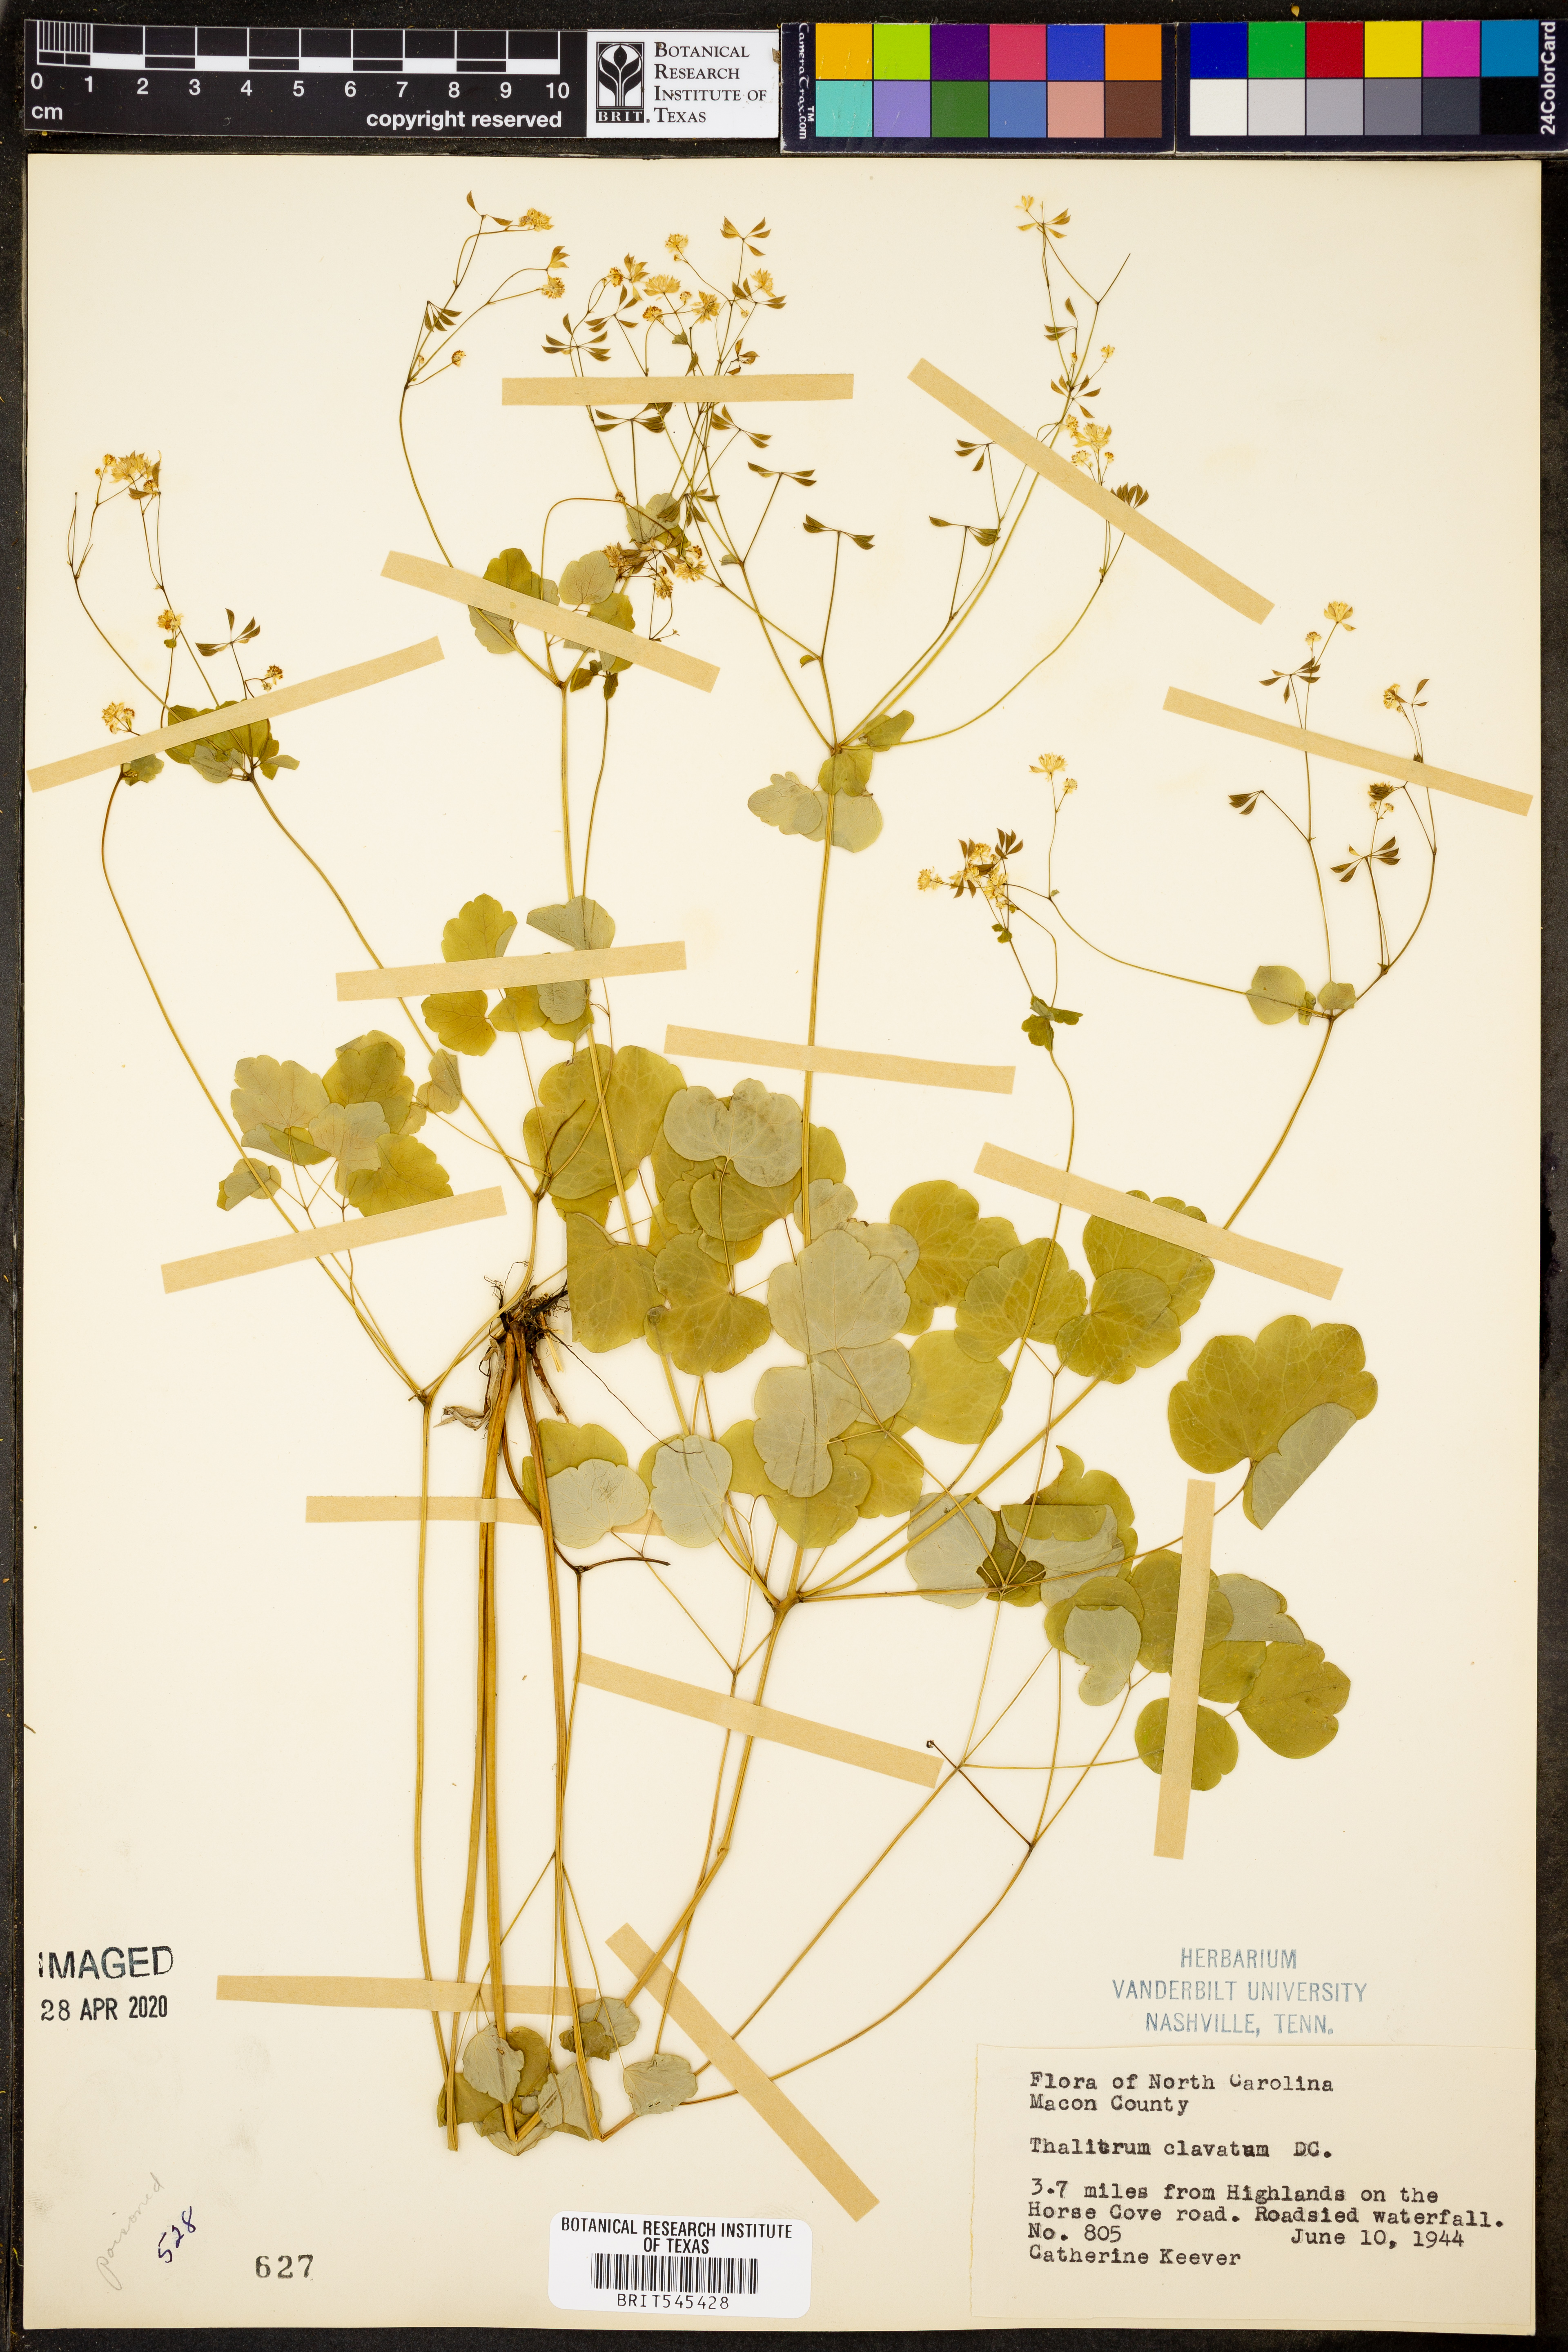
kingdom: Plantae
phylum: Tracheophyta
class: Magnoliopsida
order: Ranunculales
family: Ranunculaceae
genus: Thalictrum
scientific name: Thalictrum clavatum
